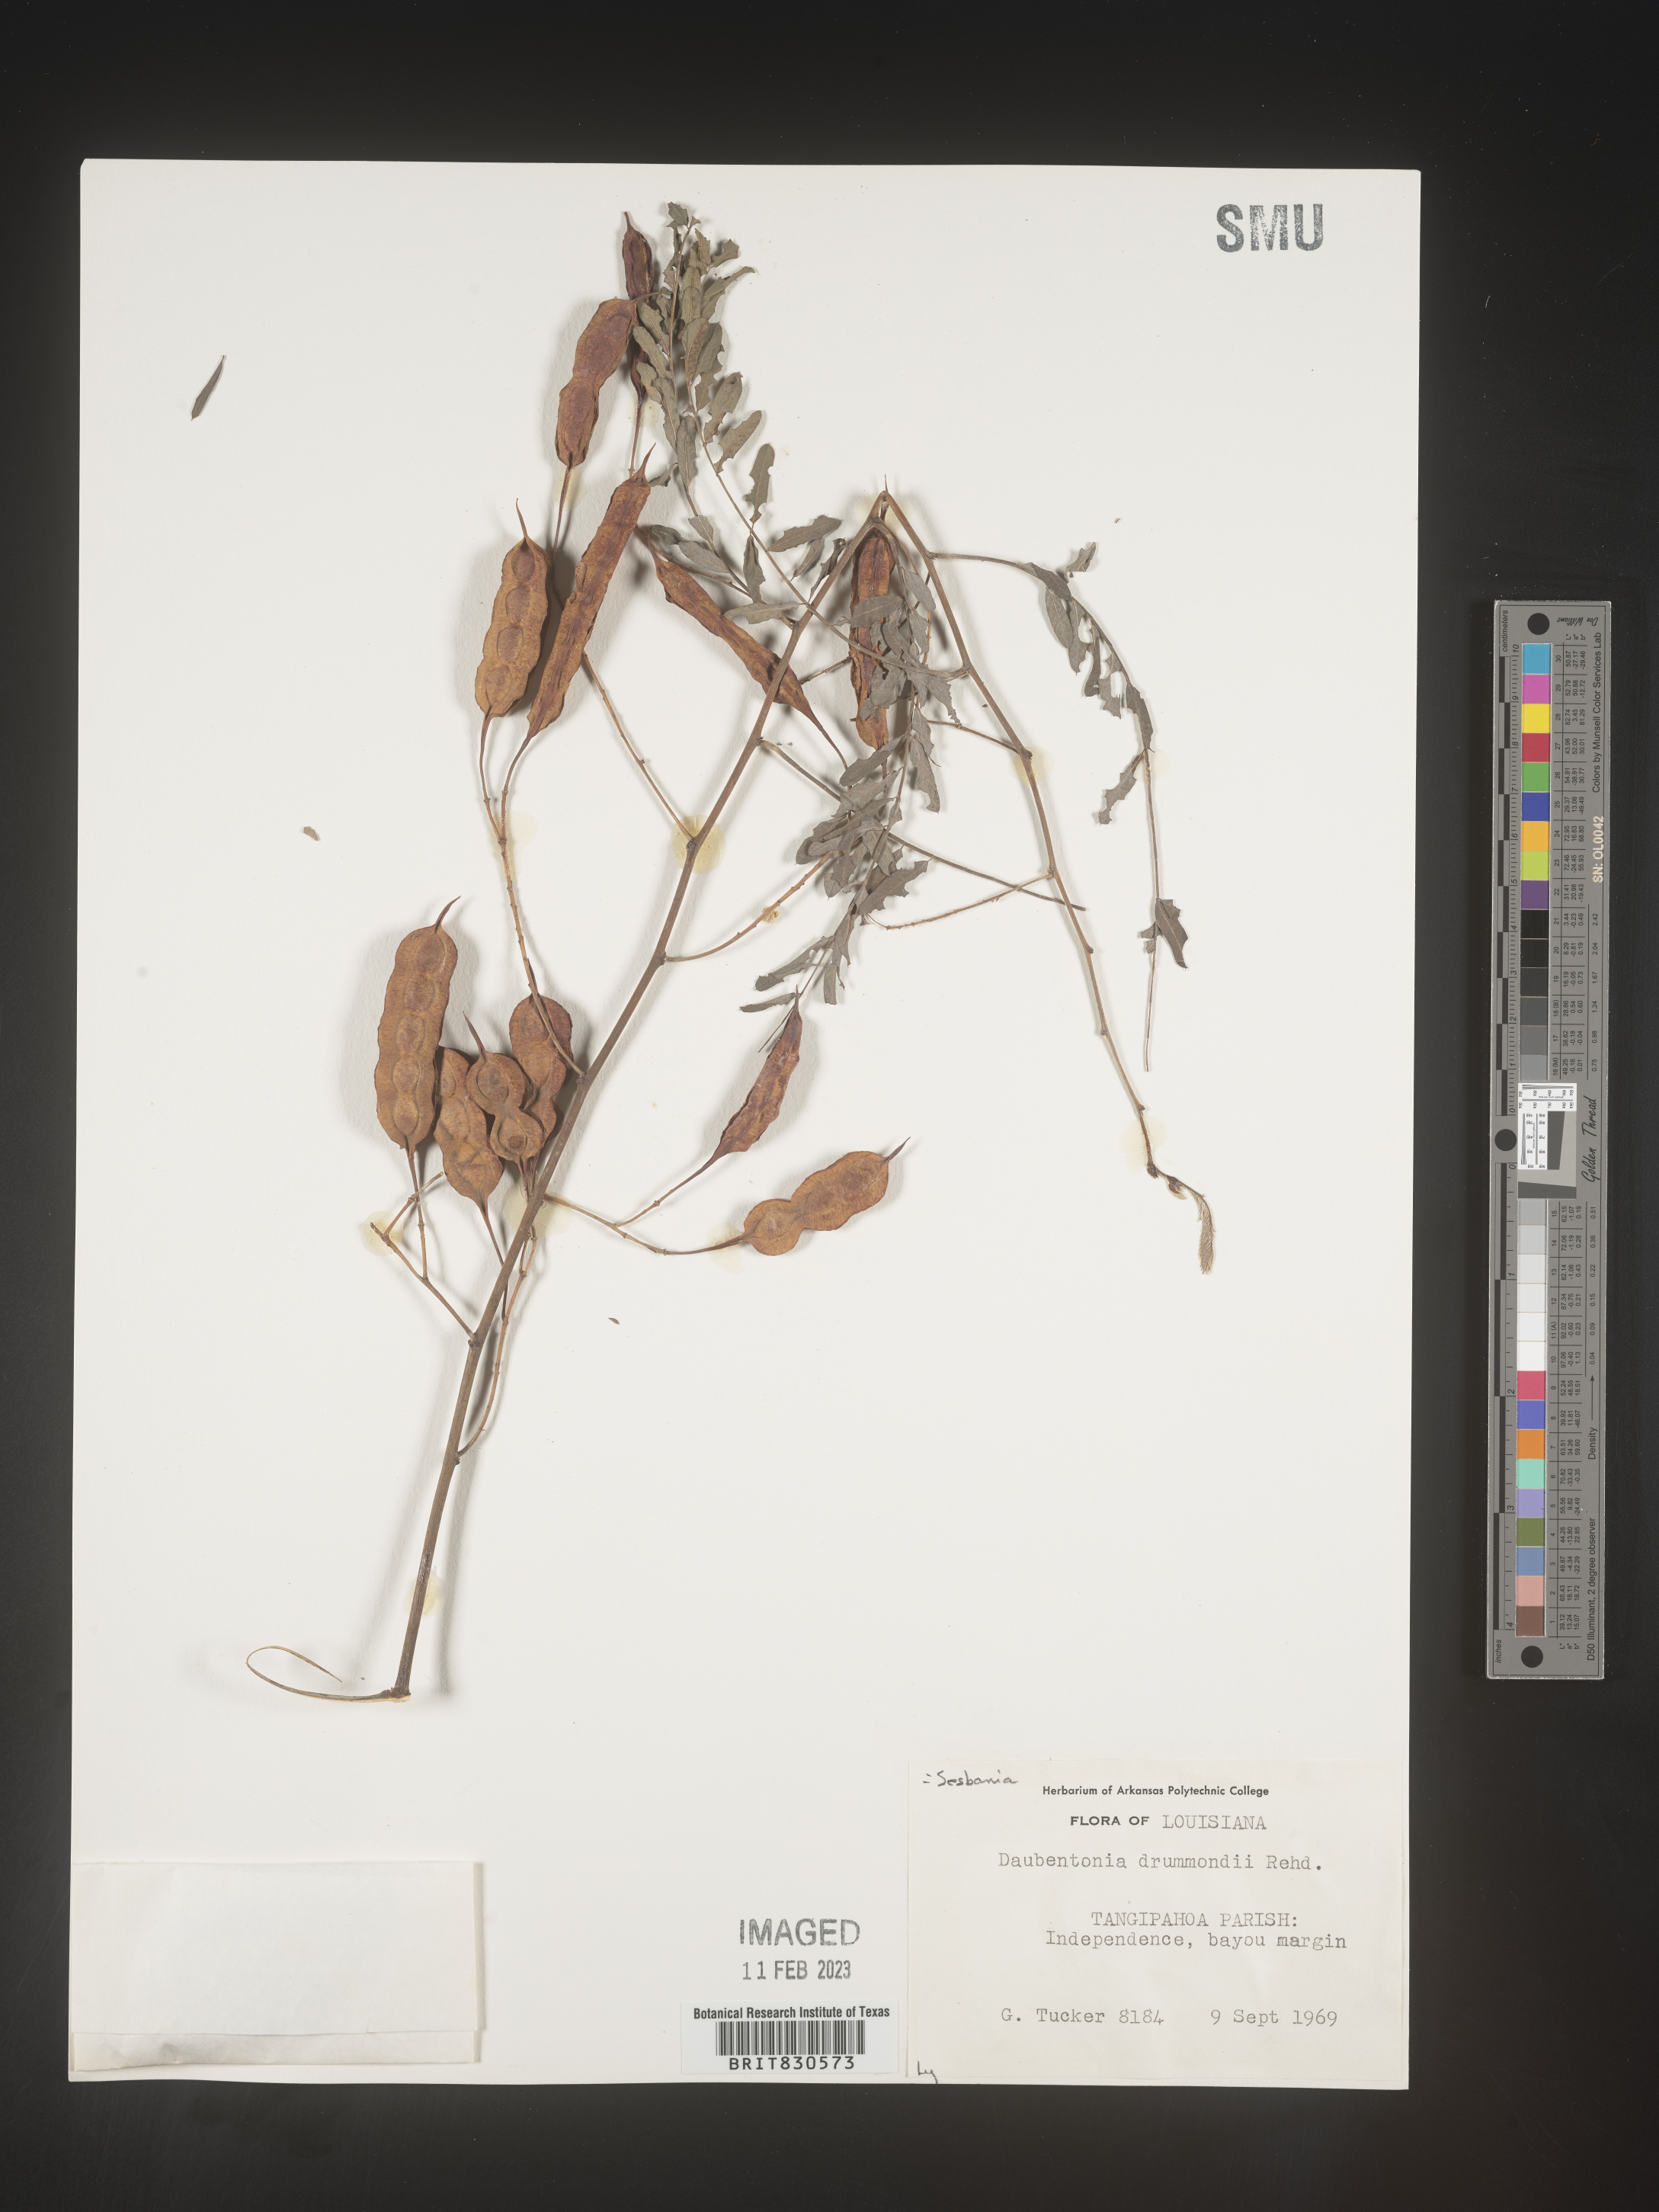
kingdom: Plantae
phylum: Tracheophyta
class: Magnoliopsida
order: Fabales
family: Fabaceae
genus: Sesbania
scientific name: Sesbania drummondii
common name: Poison-bean
